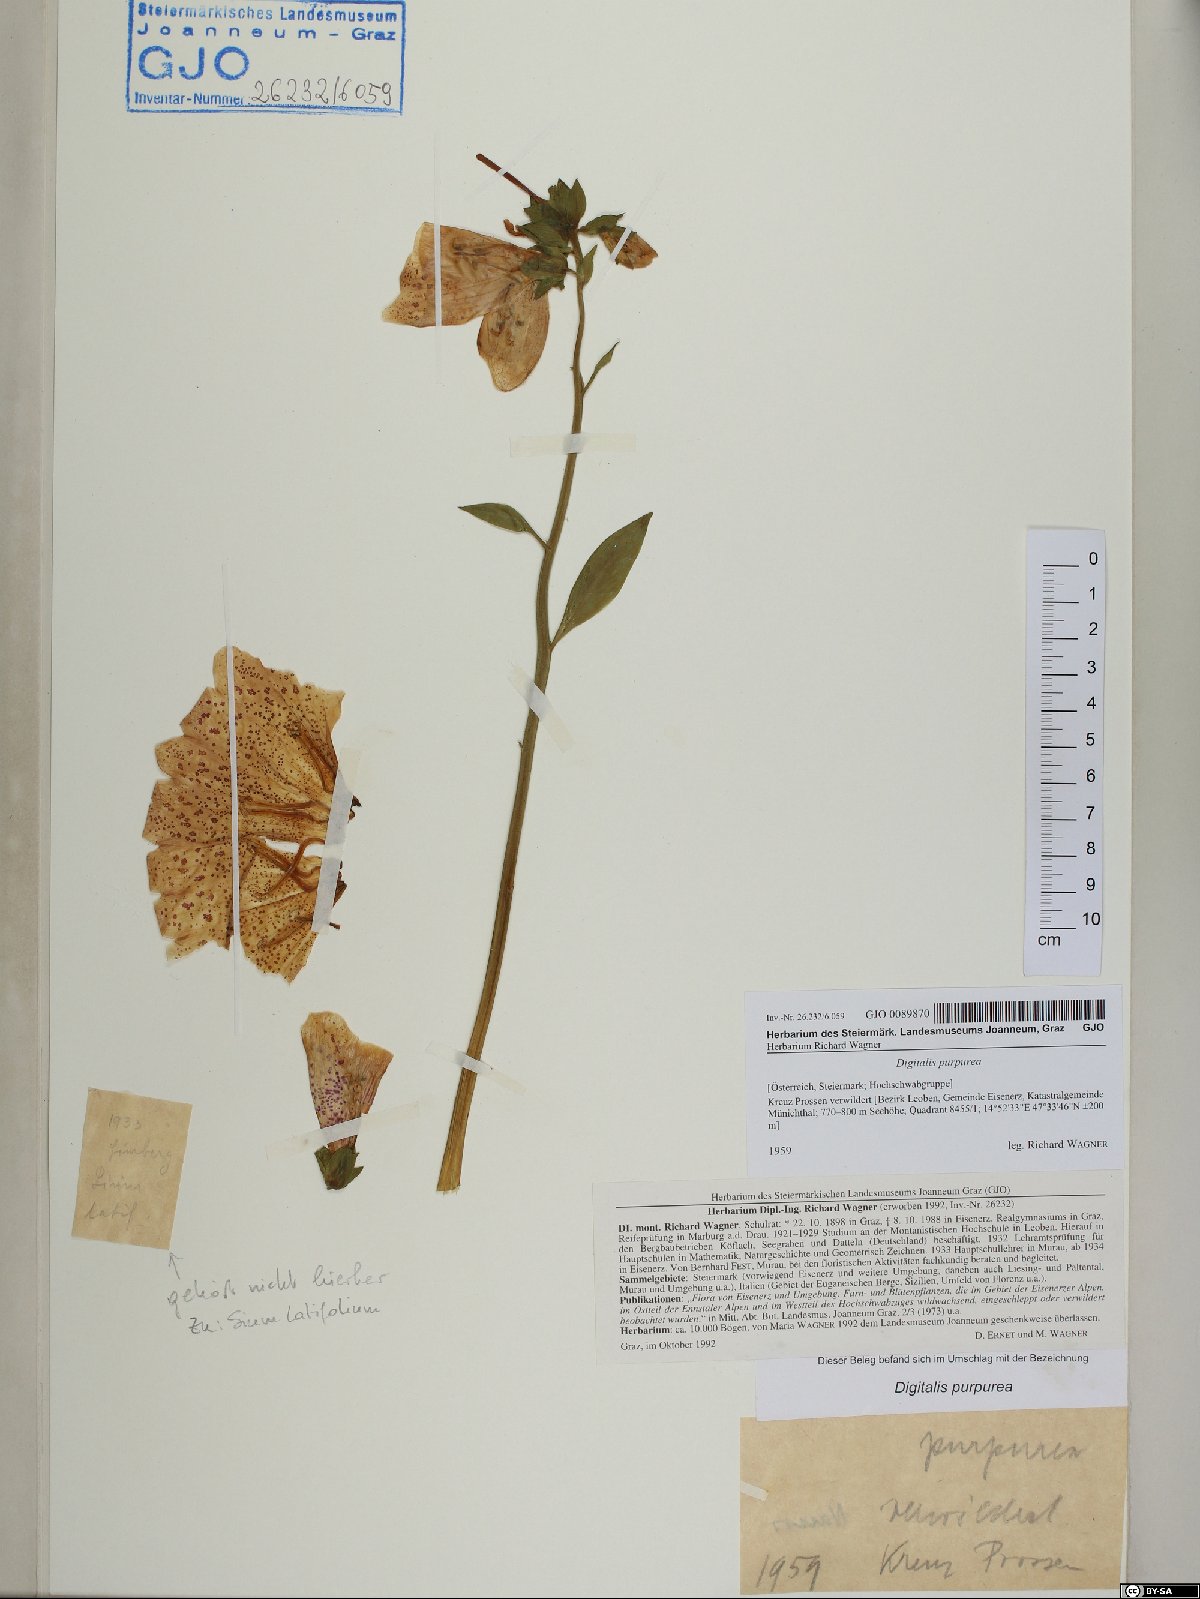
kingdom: Plantae
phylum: Tracheophyta
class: Magnoliopsida
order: Lamiales
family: Plantaginaceae
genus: Digitalis
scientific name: Digitalis purpurea
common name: Foxglove
